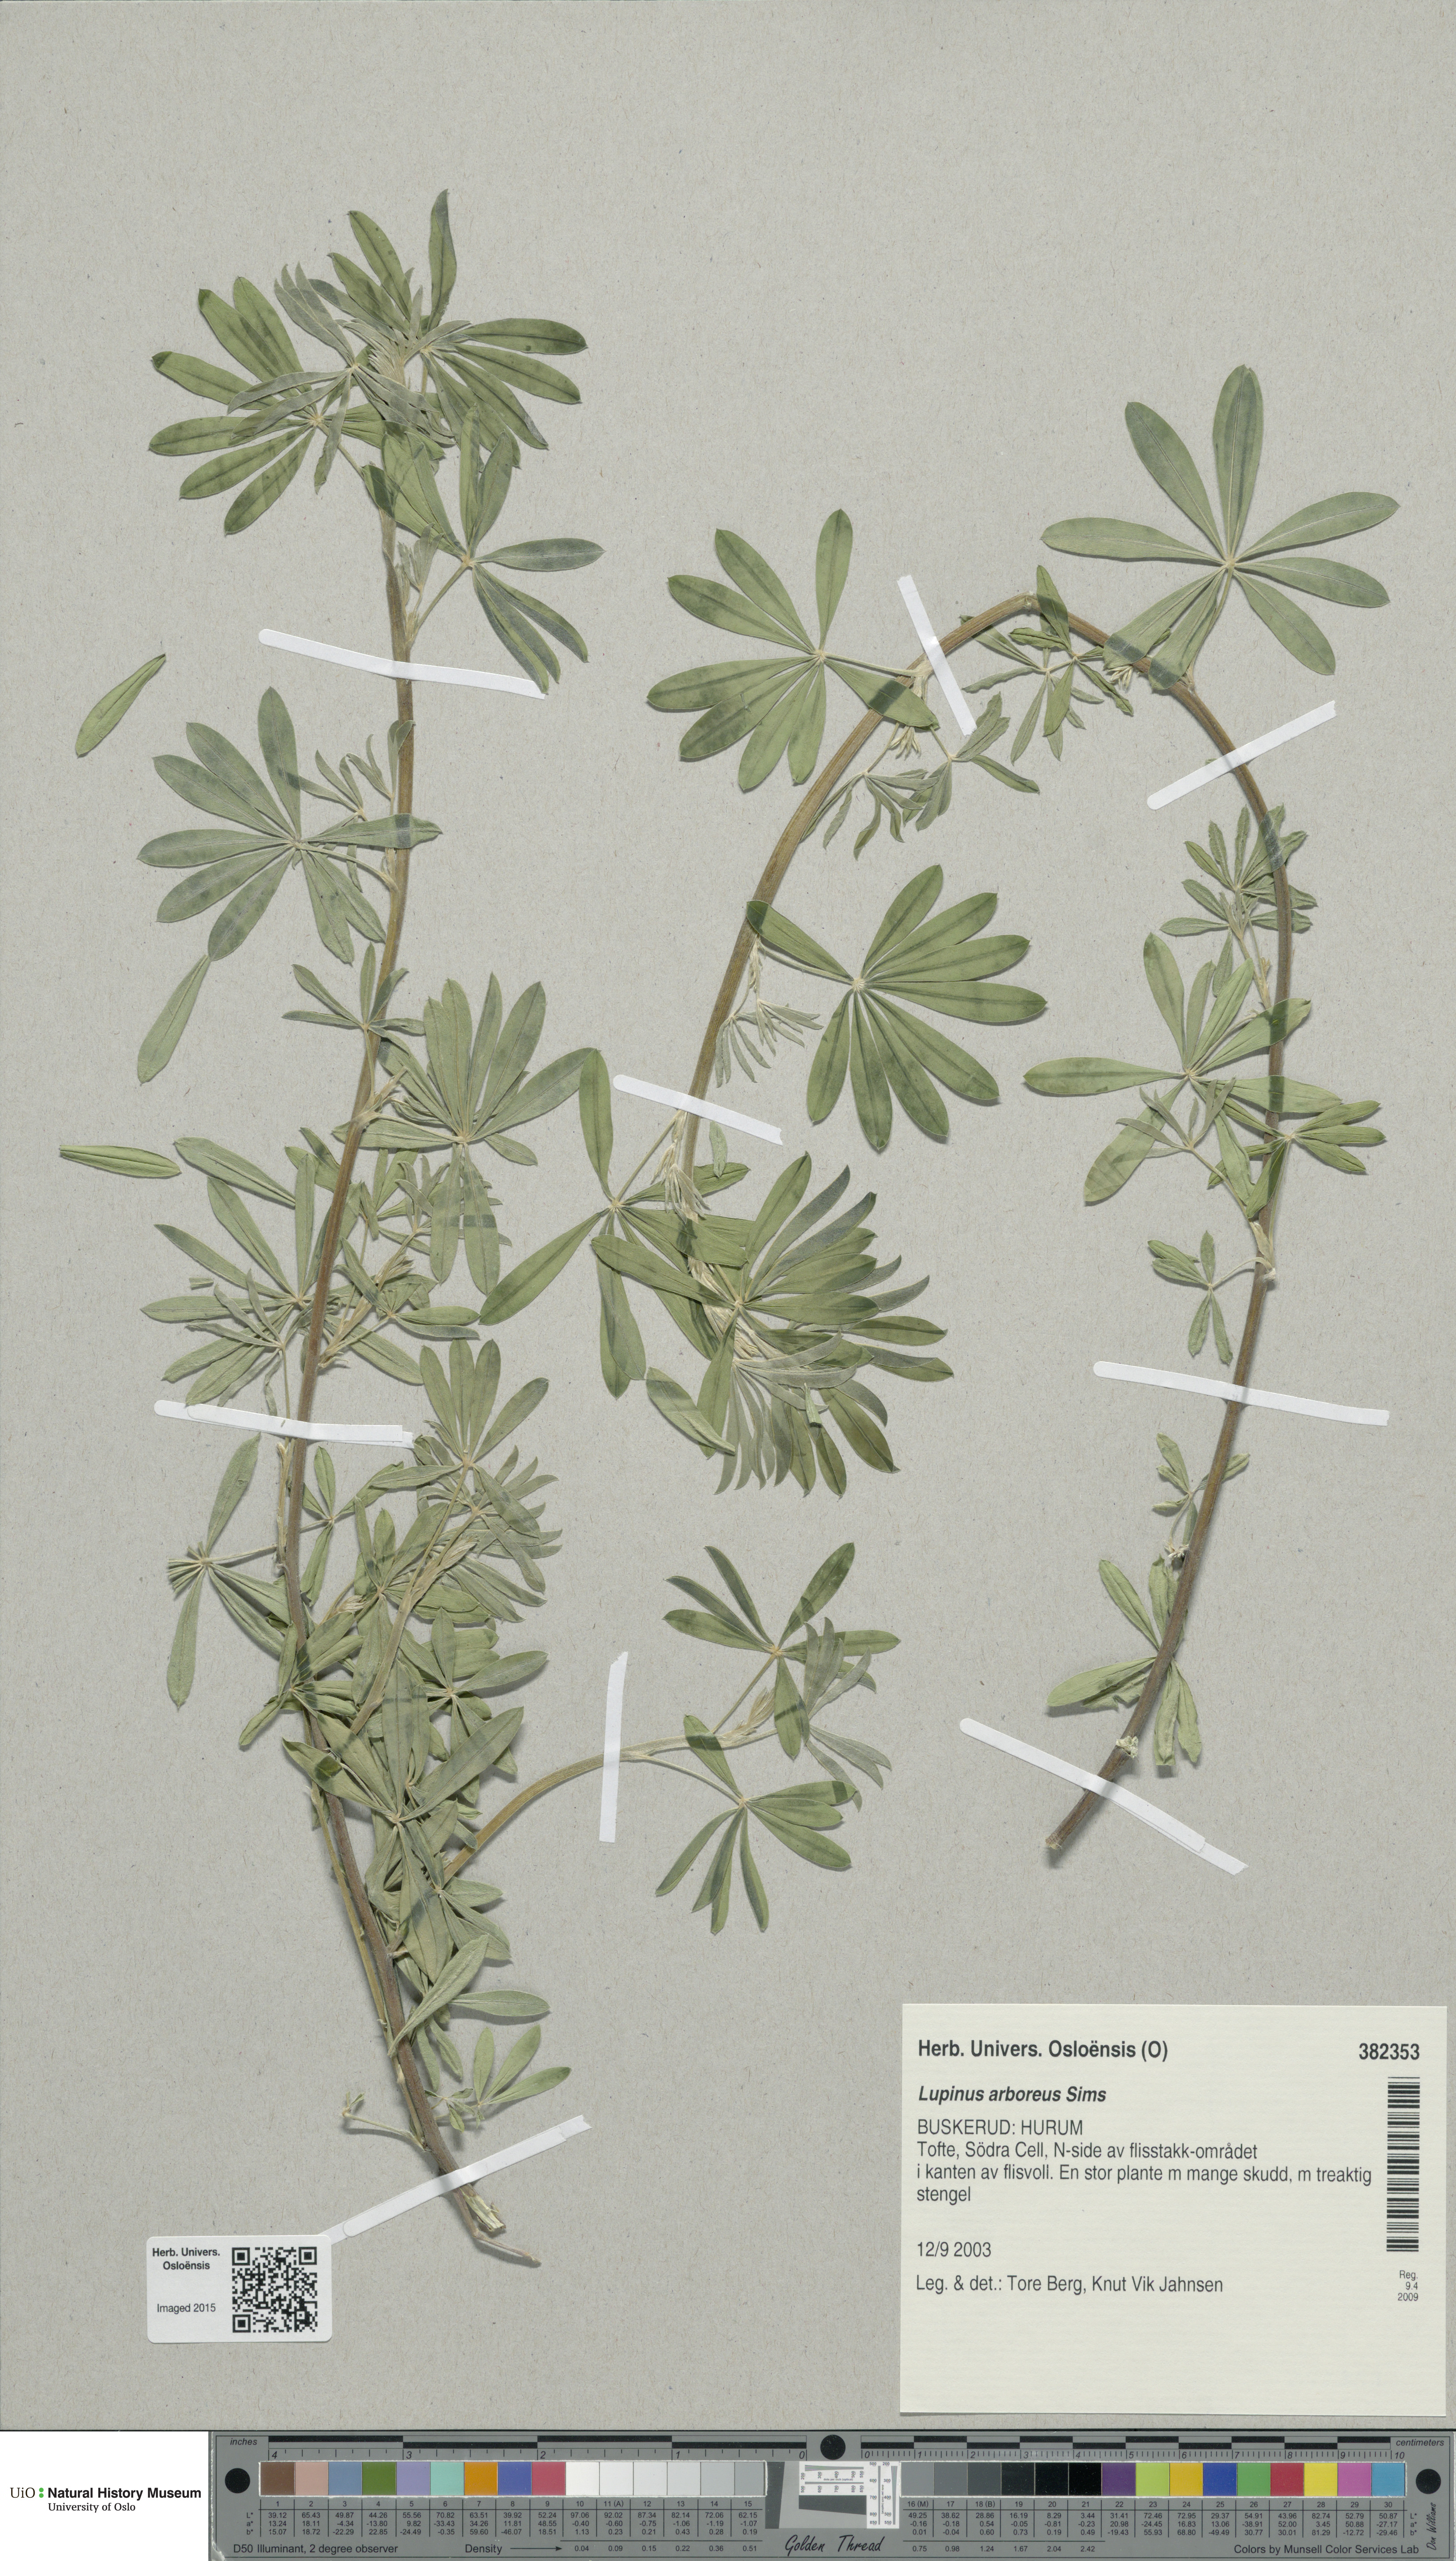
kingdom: Plantae
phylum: Tracheophyta
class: Magnoliopsida
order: Fabales
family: Fabaceae
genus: Lupinus
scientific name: Lupinus arboreus
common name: Yellow bush lupine
